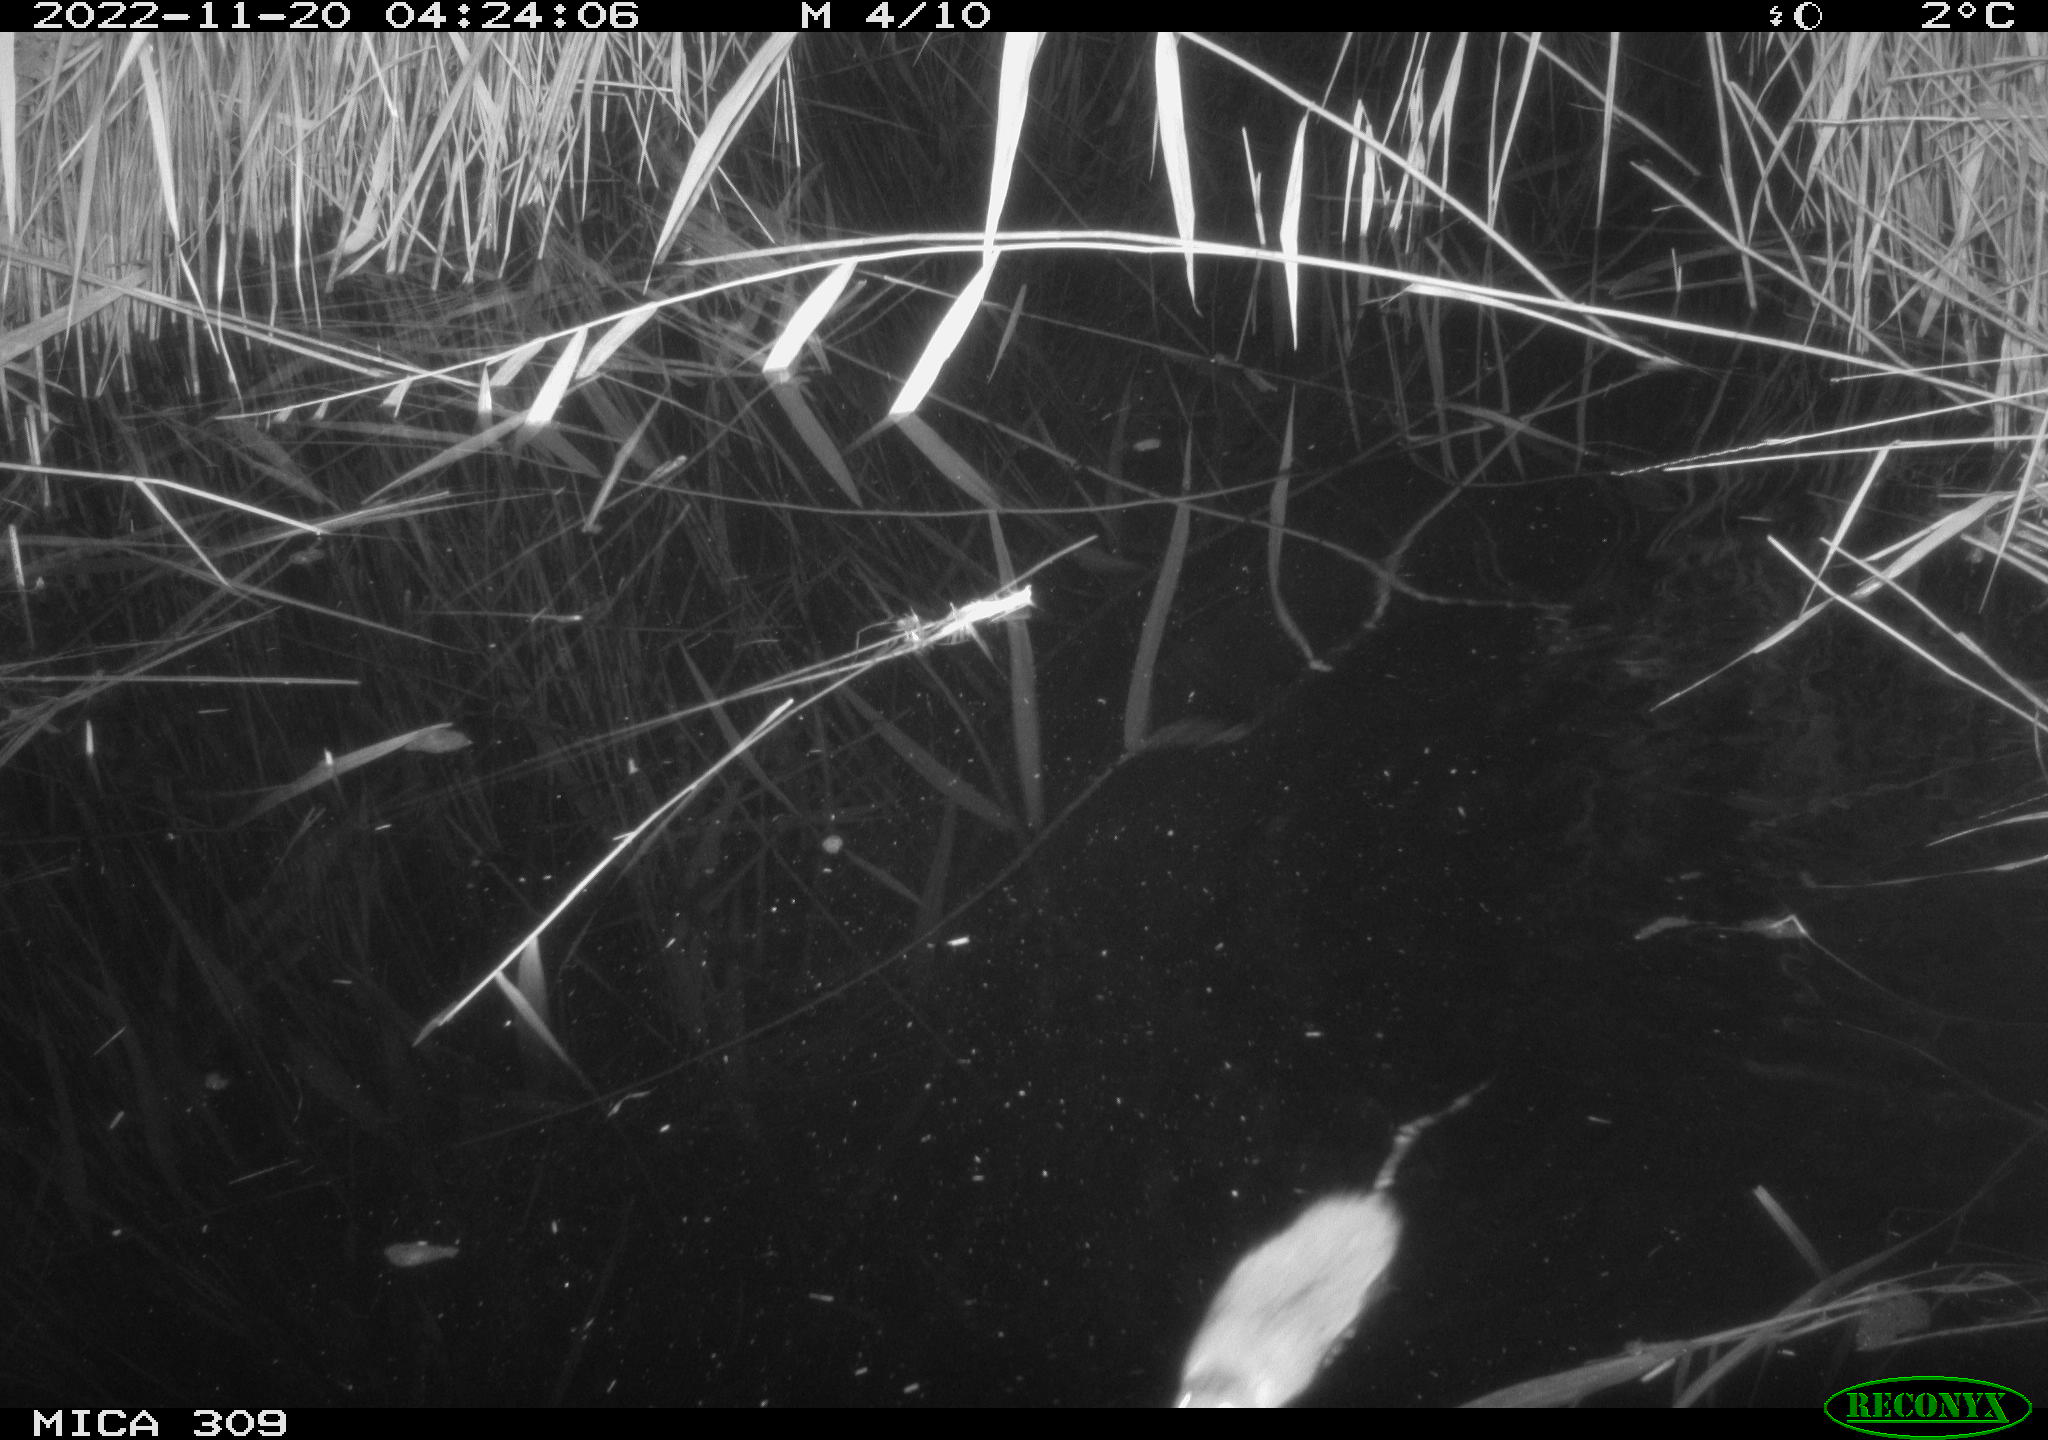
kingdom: Animalia
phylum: Chordata
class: Mammalia
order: Rodentia
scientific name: Rodentia
